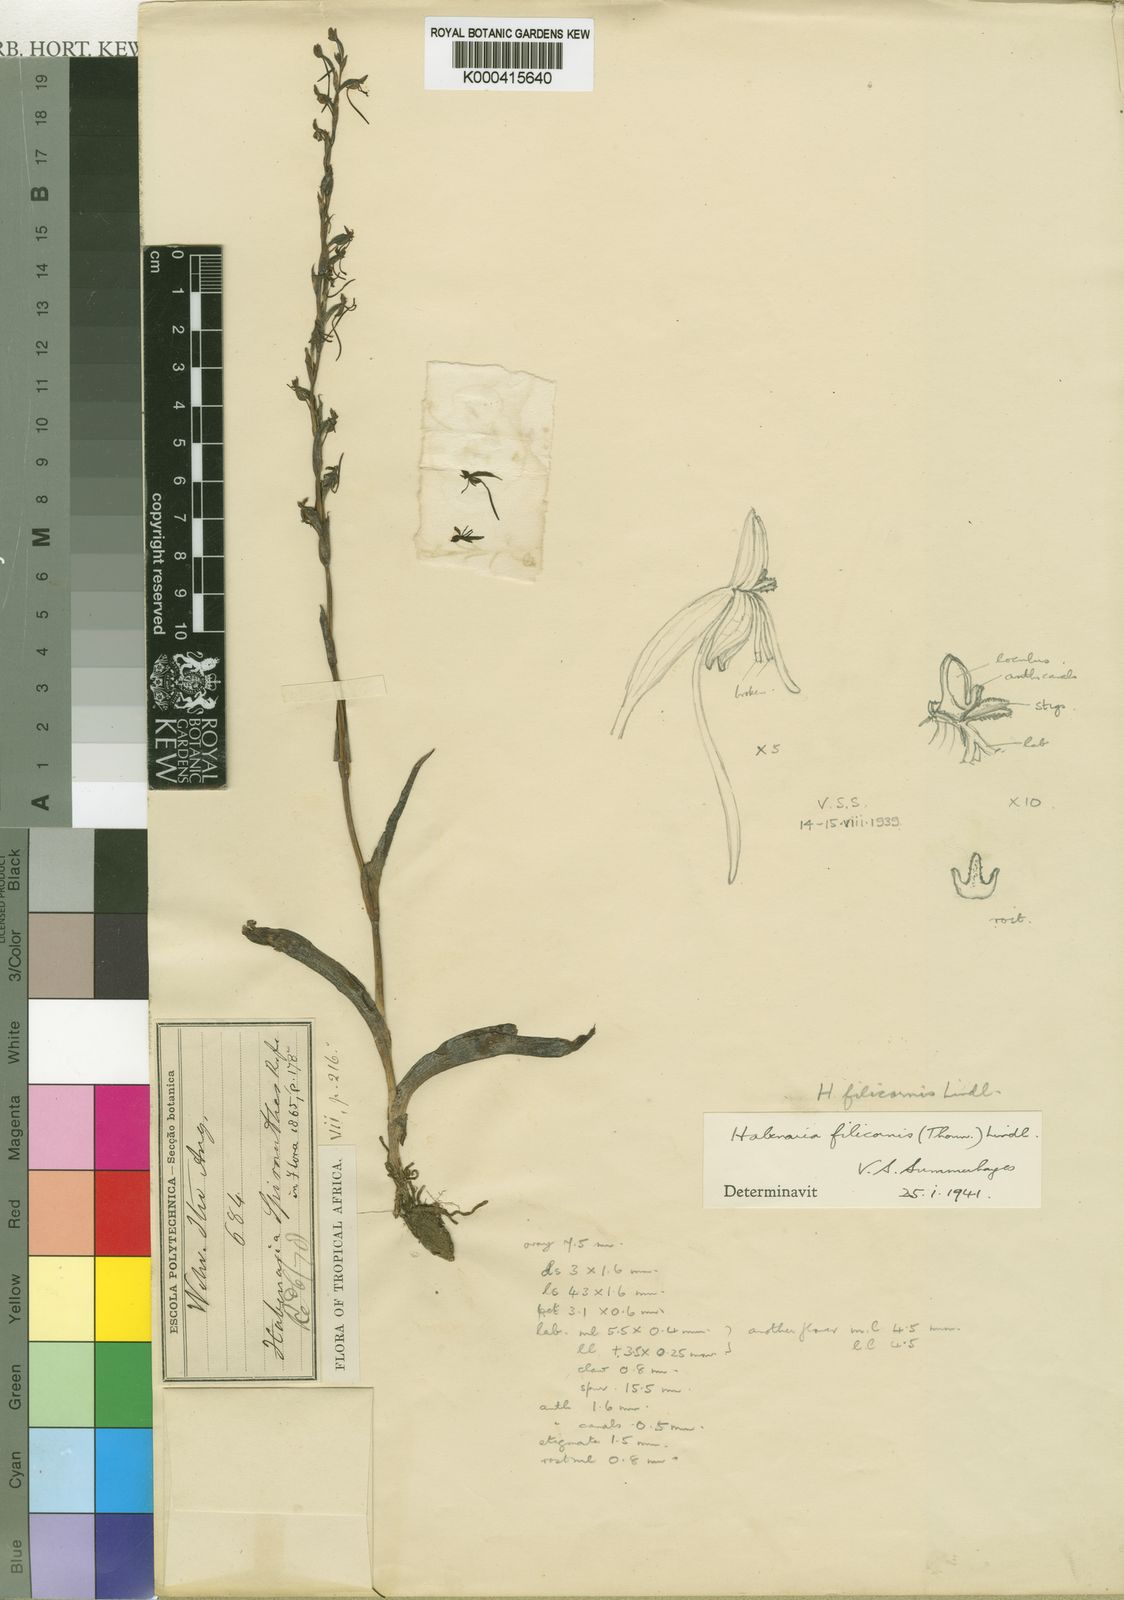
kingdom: Plantae
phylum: Tracheophyta
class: Liliopsida
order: Asparagales
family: Orchidaceae
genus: Habenaria
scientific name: Habenaria filicornis
